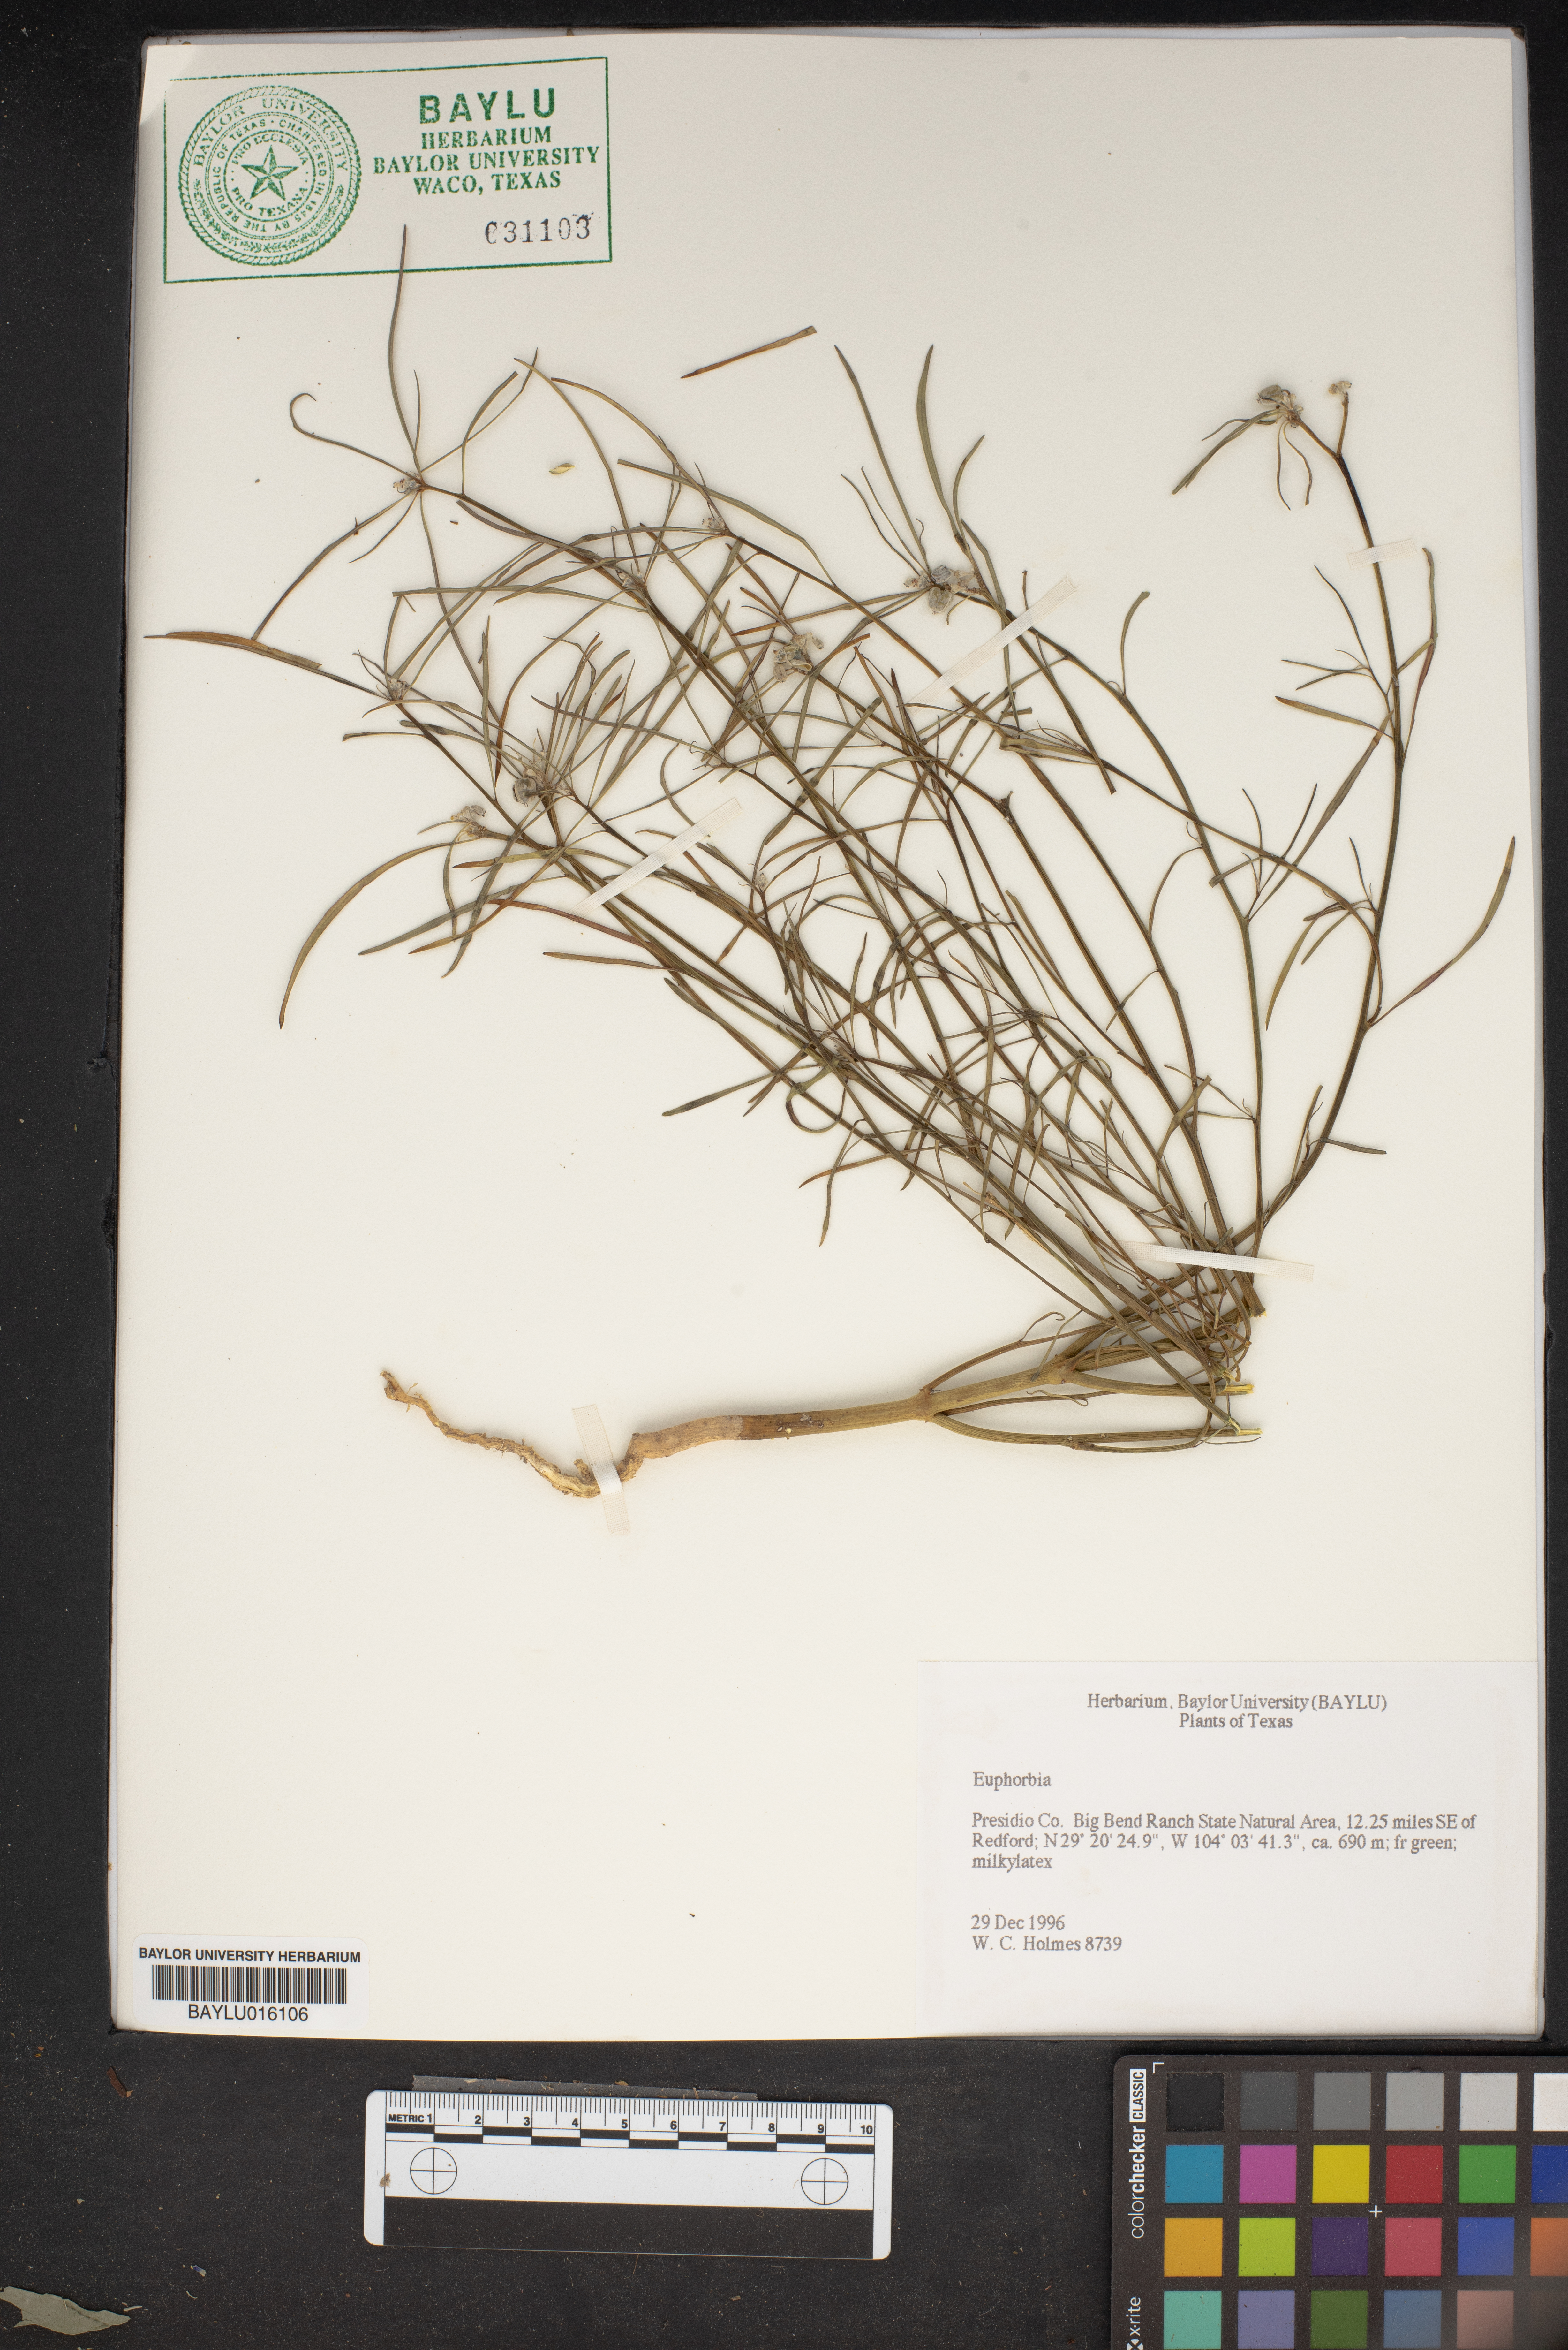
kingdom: Plantae
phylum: Tracheophyta
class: Magnoliopsida
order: Malpighiales
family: Euphorbiaceae
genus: Euphorbia
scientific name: Euphorbia
